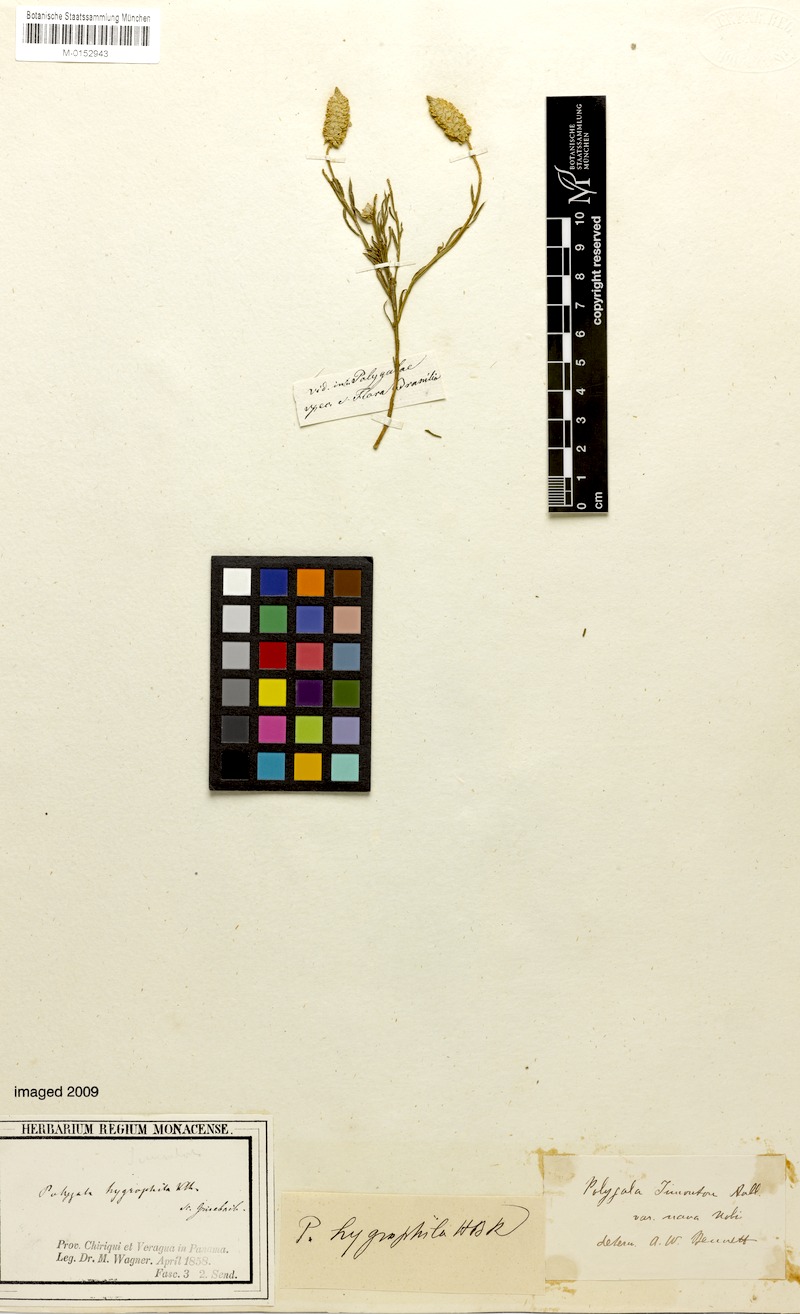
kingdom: Plantae
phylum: Tracheophyta
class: Magnoliopsida
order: Fabales
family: Polygalaceae
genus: Polygala
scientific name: Polygala hygrophila
